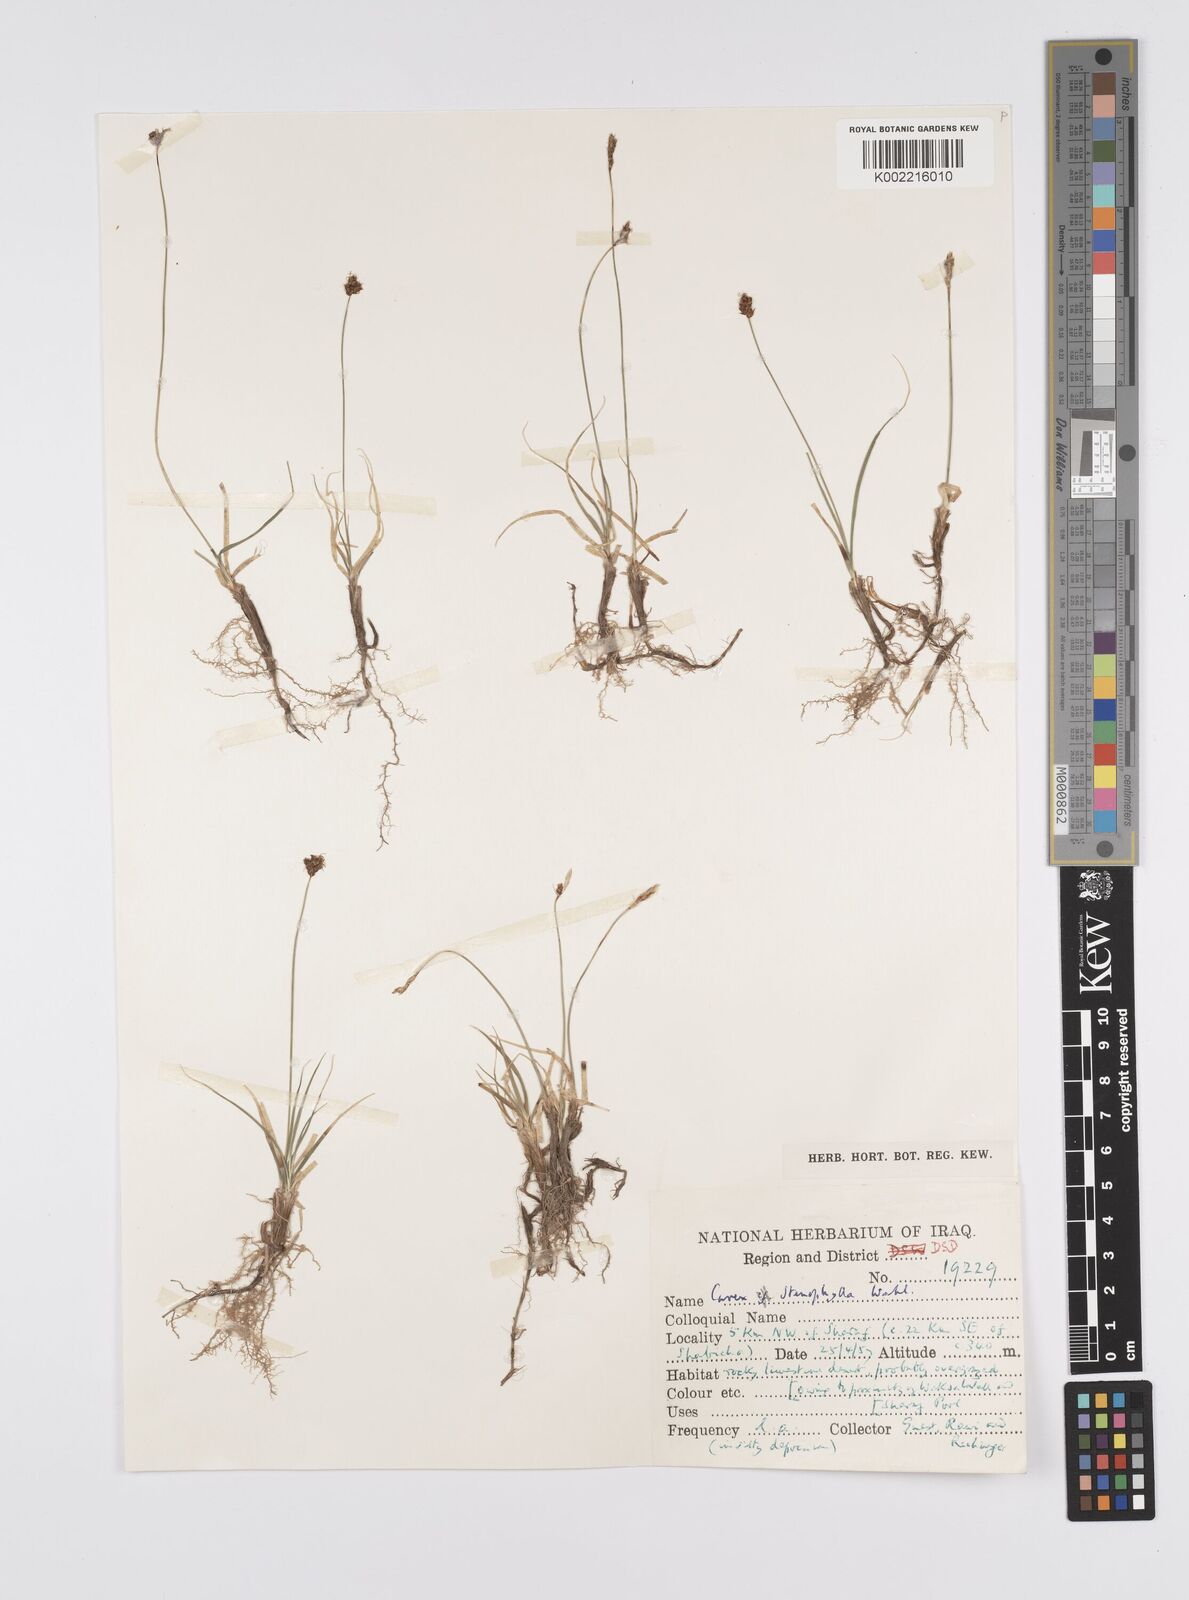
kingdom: Plantae
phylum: Tracheophyta
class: Liliopsida
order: Poales
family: Cyperaceae
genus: Carex
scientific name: Carex pachystylis
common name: Thick-stem sedge
